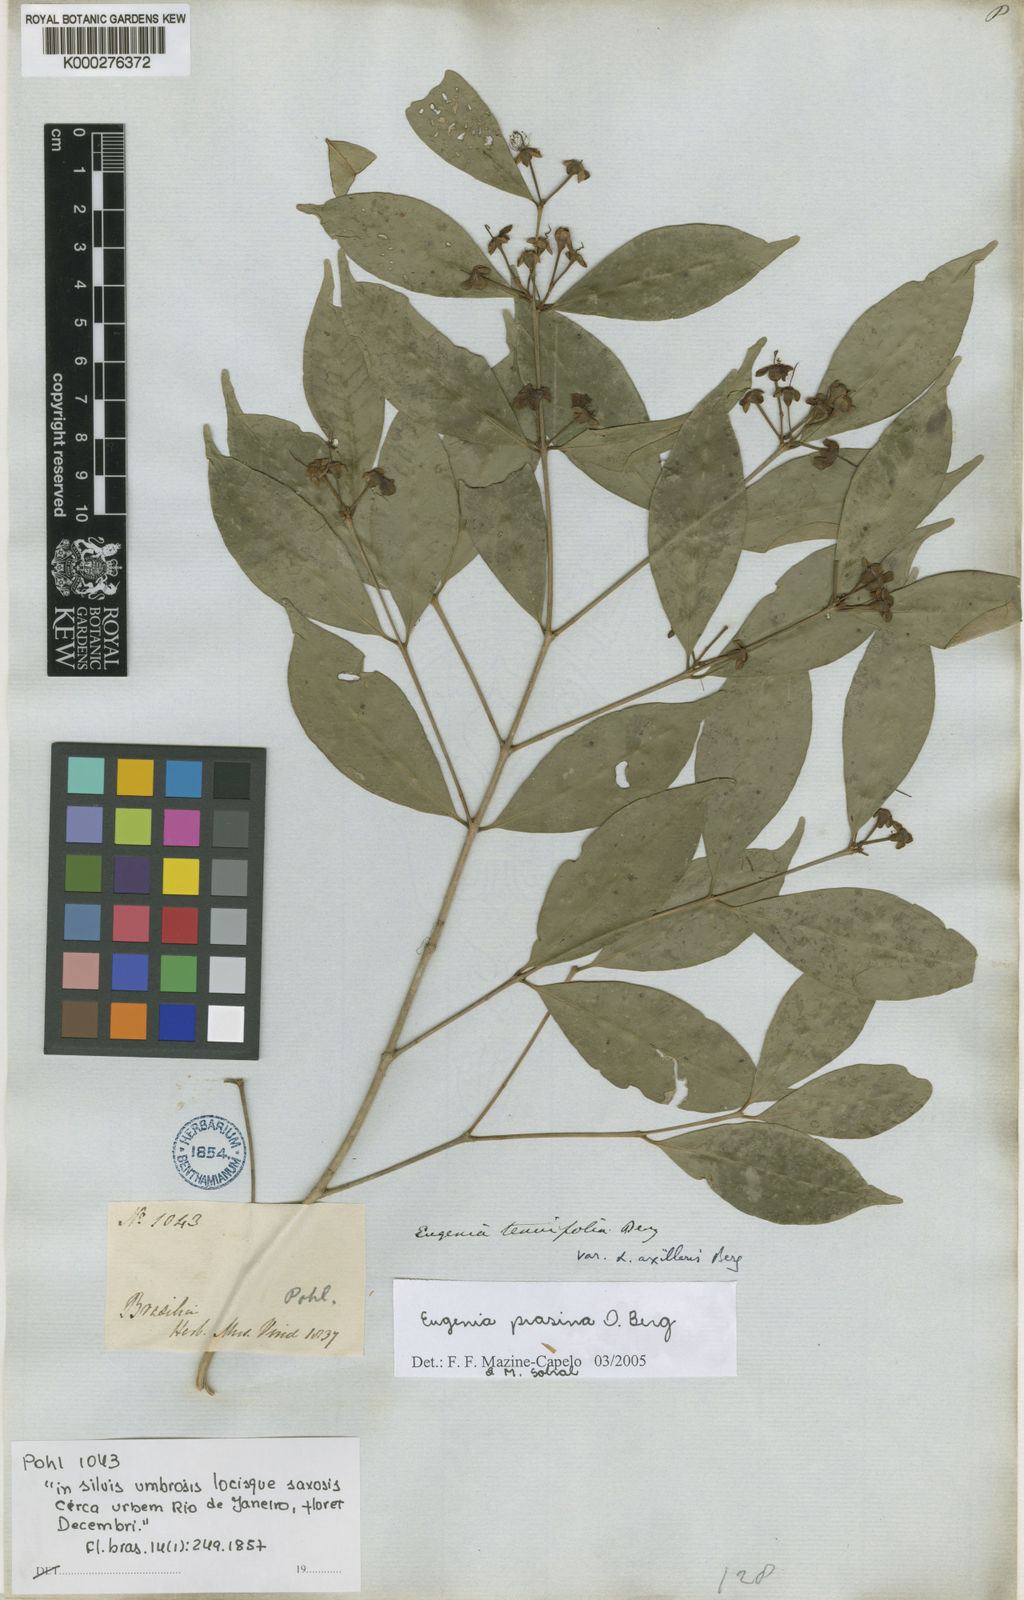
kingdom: Plantae
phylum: Tracheophyta
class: Magnoliopsida
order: Myrtales
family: Myrtaceae
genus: Eugenia
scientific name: Eugenia prasina
